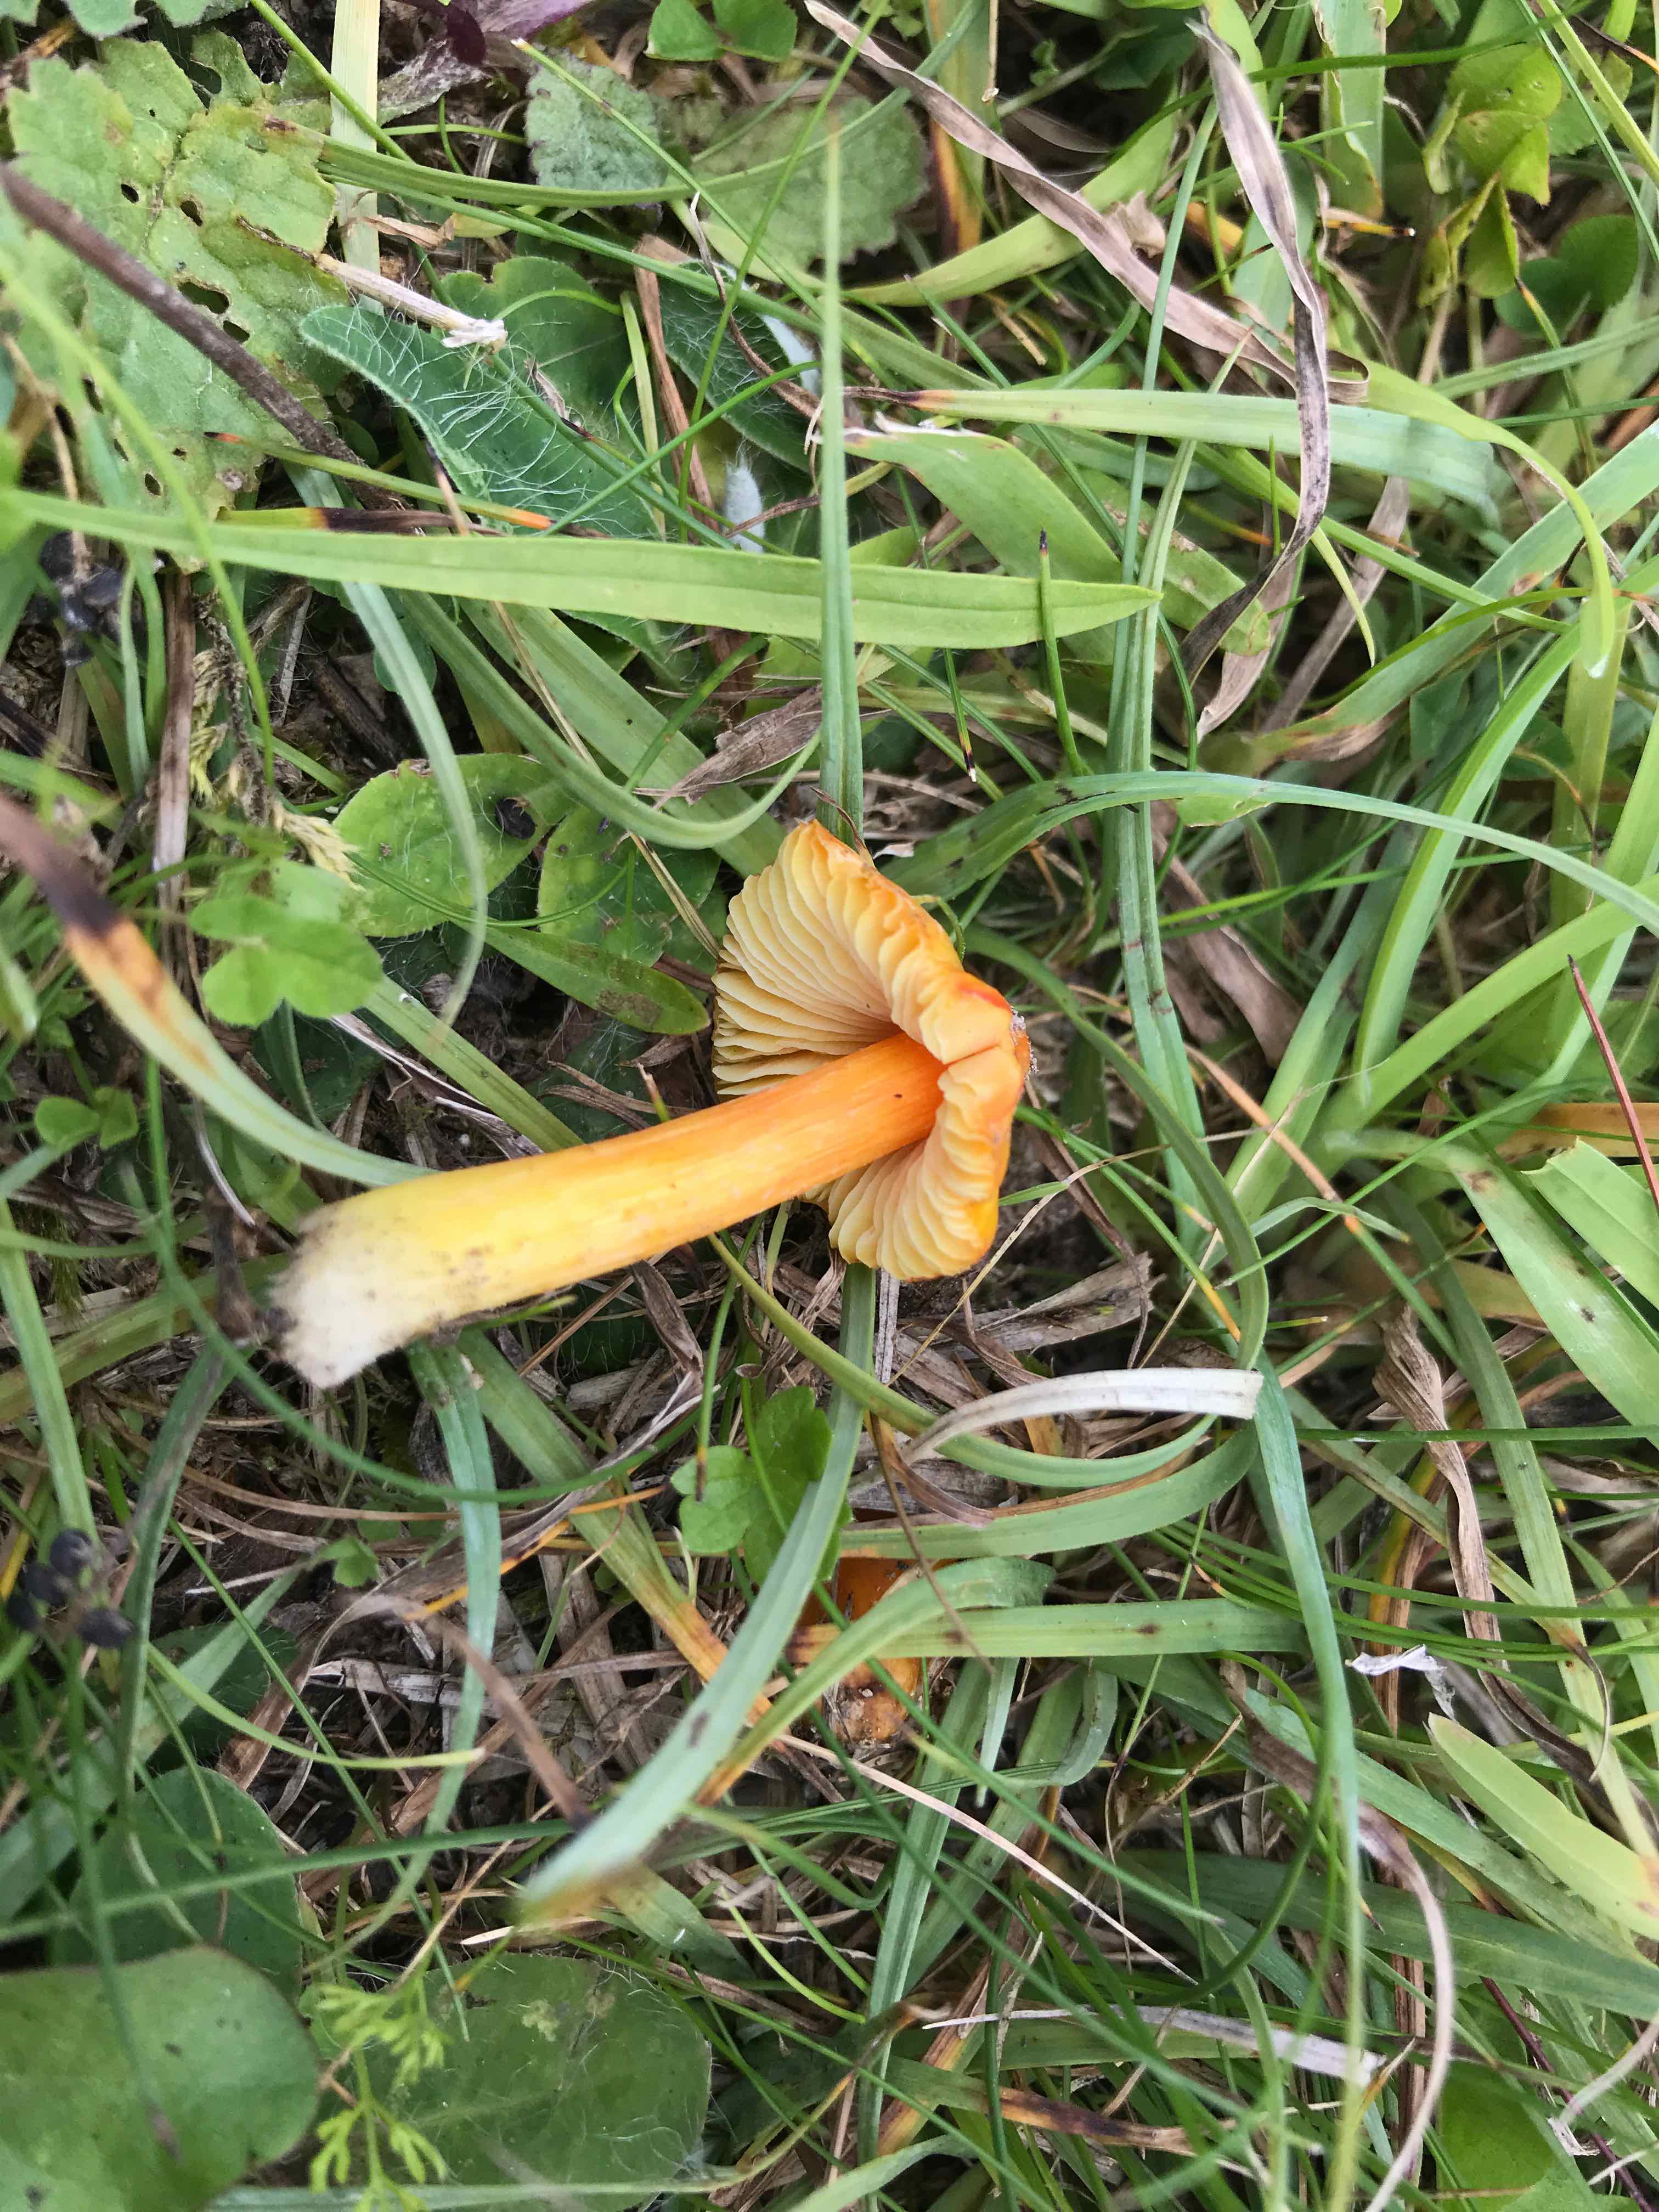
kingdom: Fungi
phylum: Basidiomycota
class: Agaricomycetes
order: Agaricales
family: Hygrophoraceae
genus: Hygrocybe
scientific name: Hygrocybe acutoconica
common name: spidspuklet vokshat
